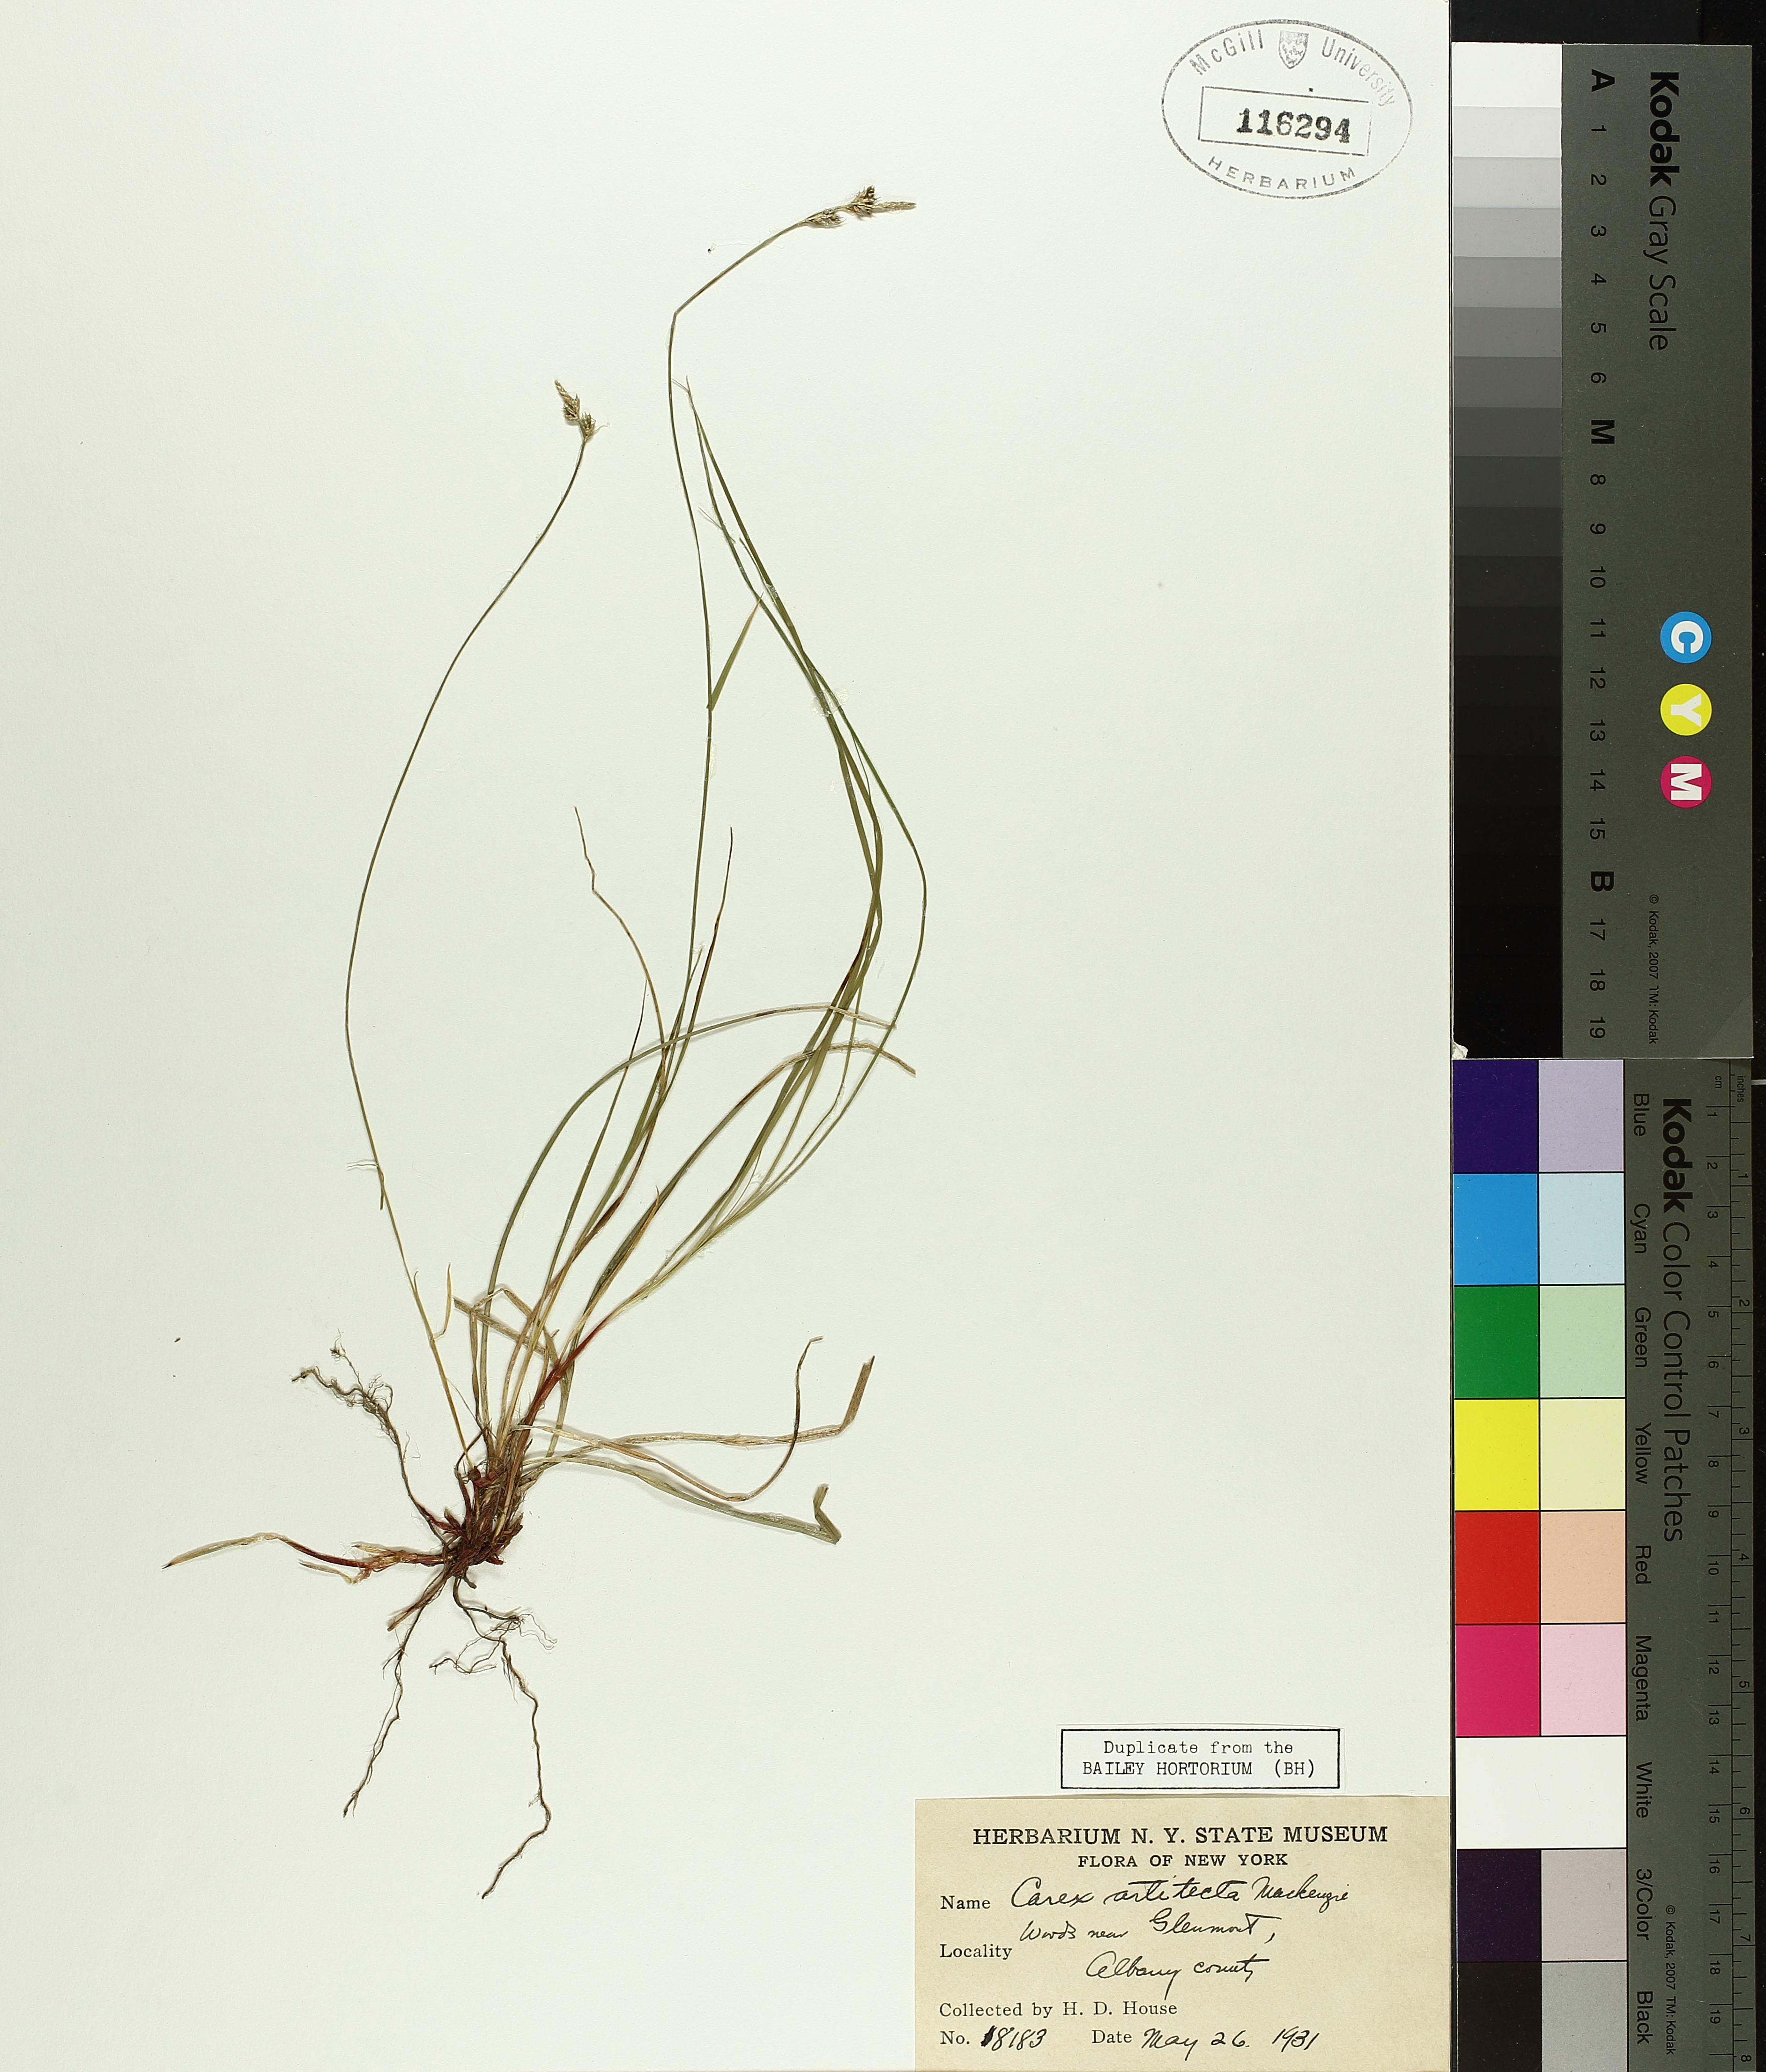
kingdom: Plantae
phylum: Tracheophyta
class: Liliopsida
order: Poales
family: Cyperaceae
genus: Carex
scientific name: Carex albicans
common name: Bellow-beaked sedge
